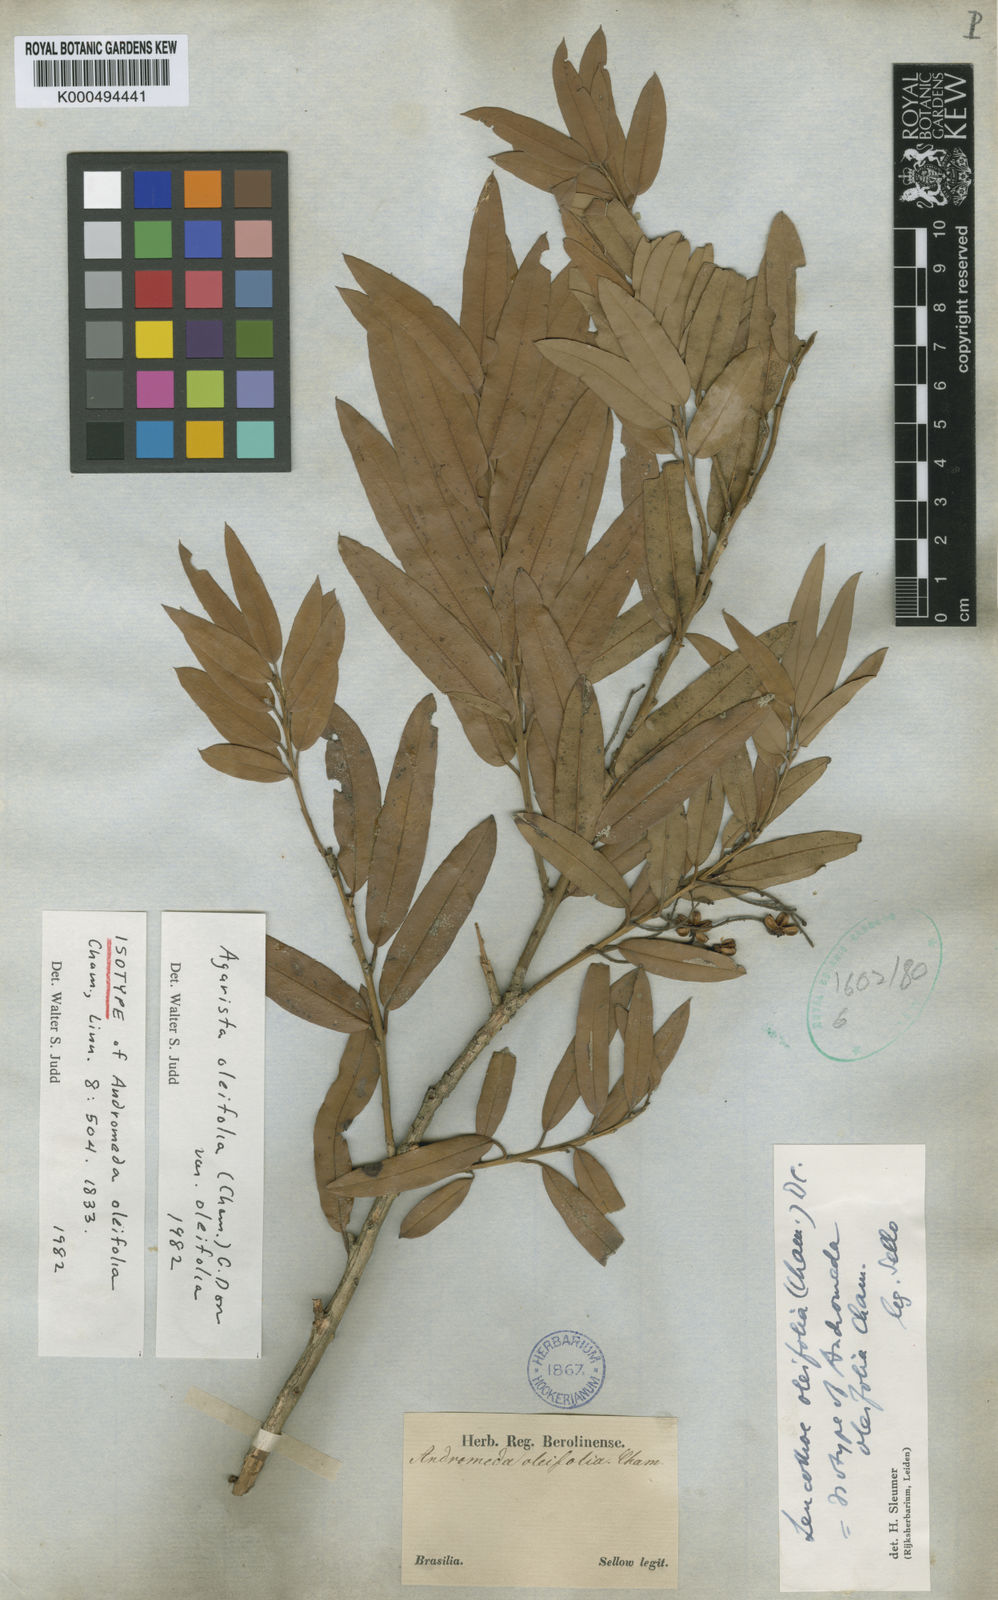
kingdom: Plantae
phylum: Tracheophyta
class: Magnoliopsida
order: Ericales
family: Ericaceae
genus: Agarista
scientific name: Agarista oleifolia
